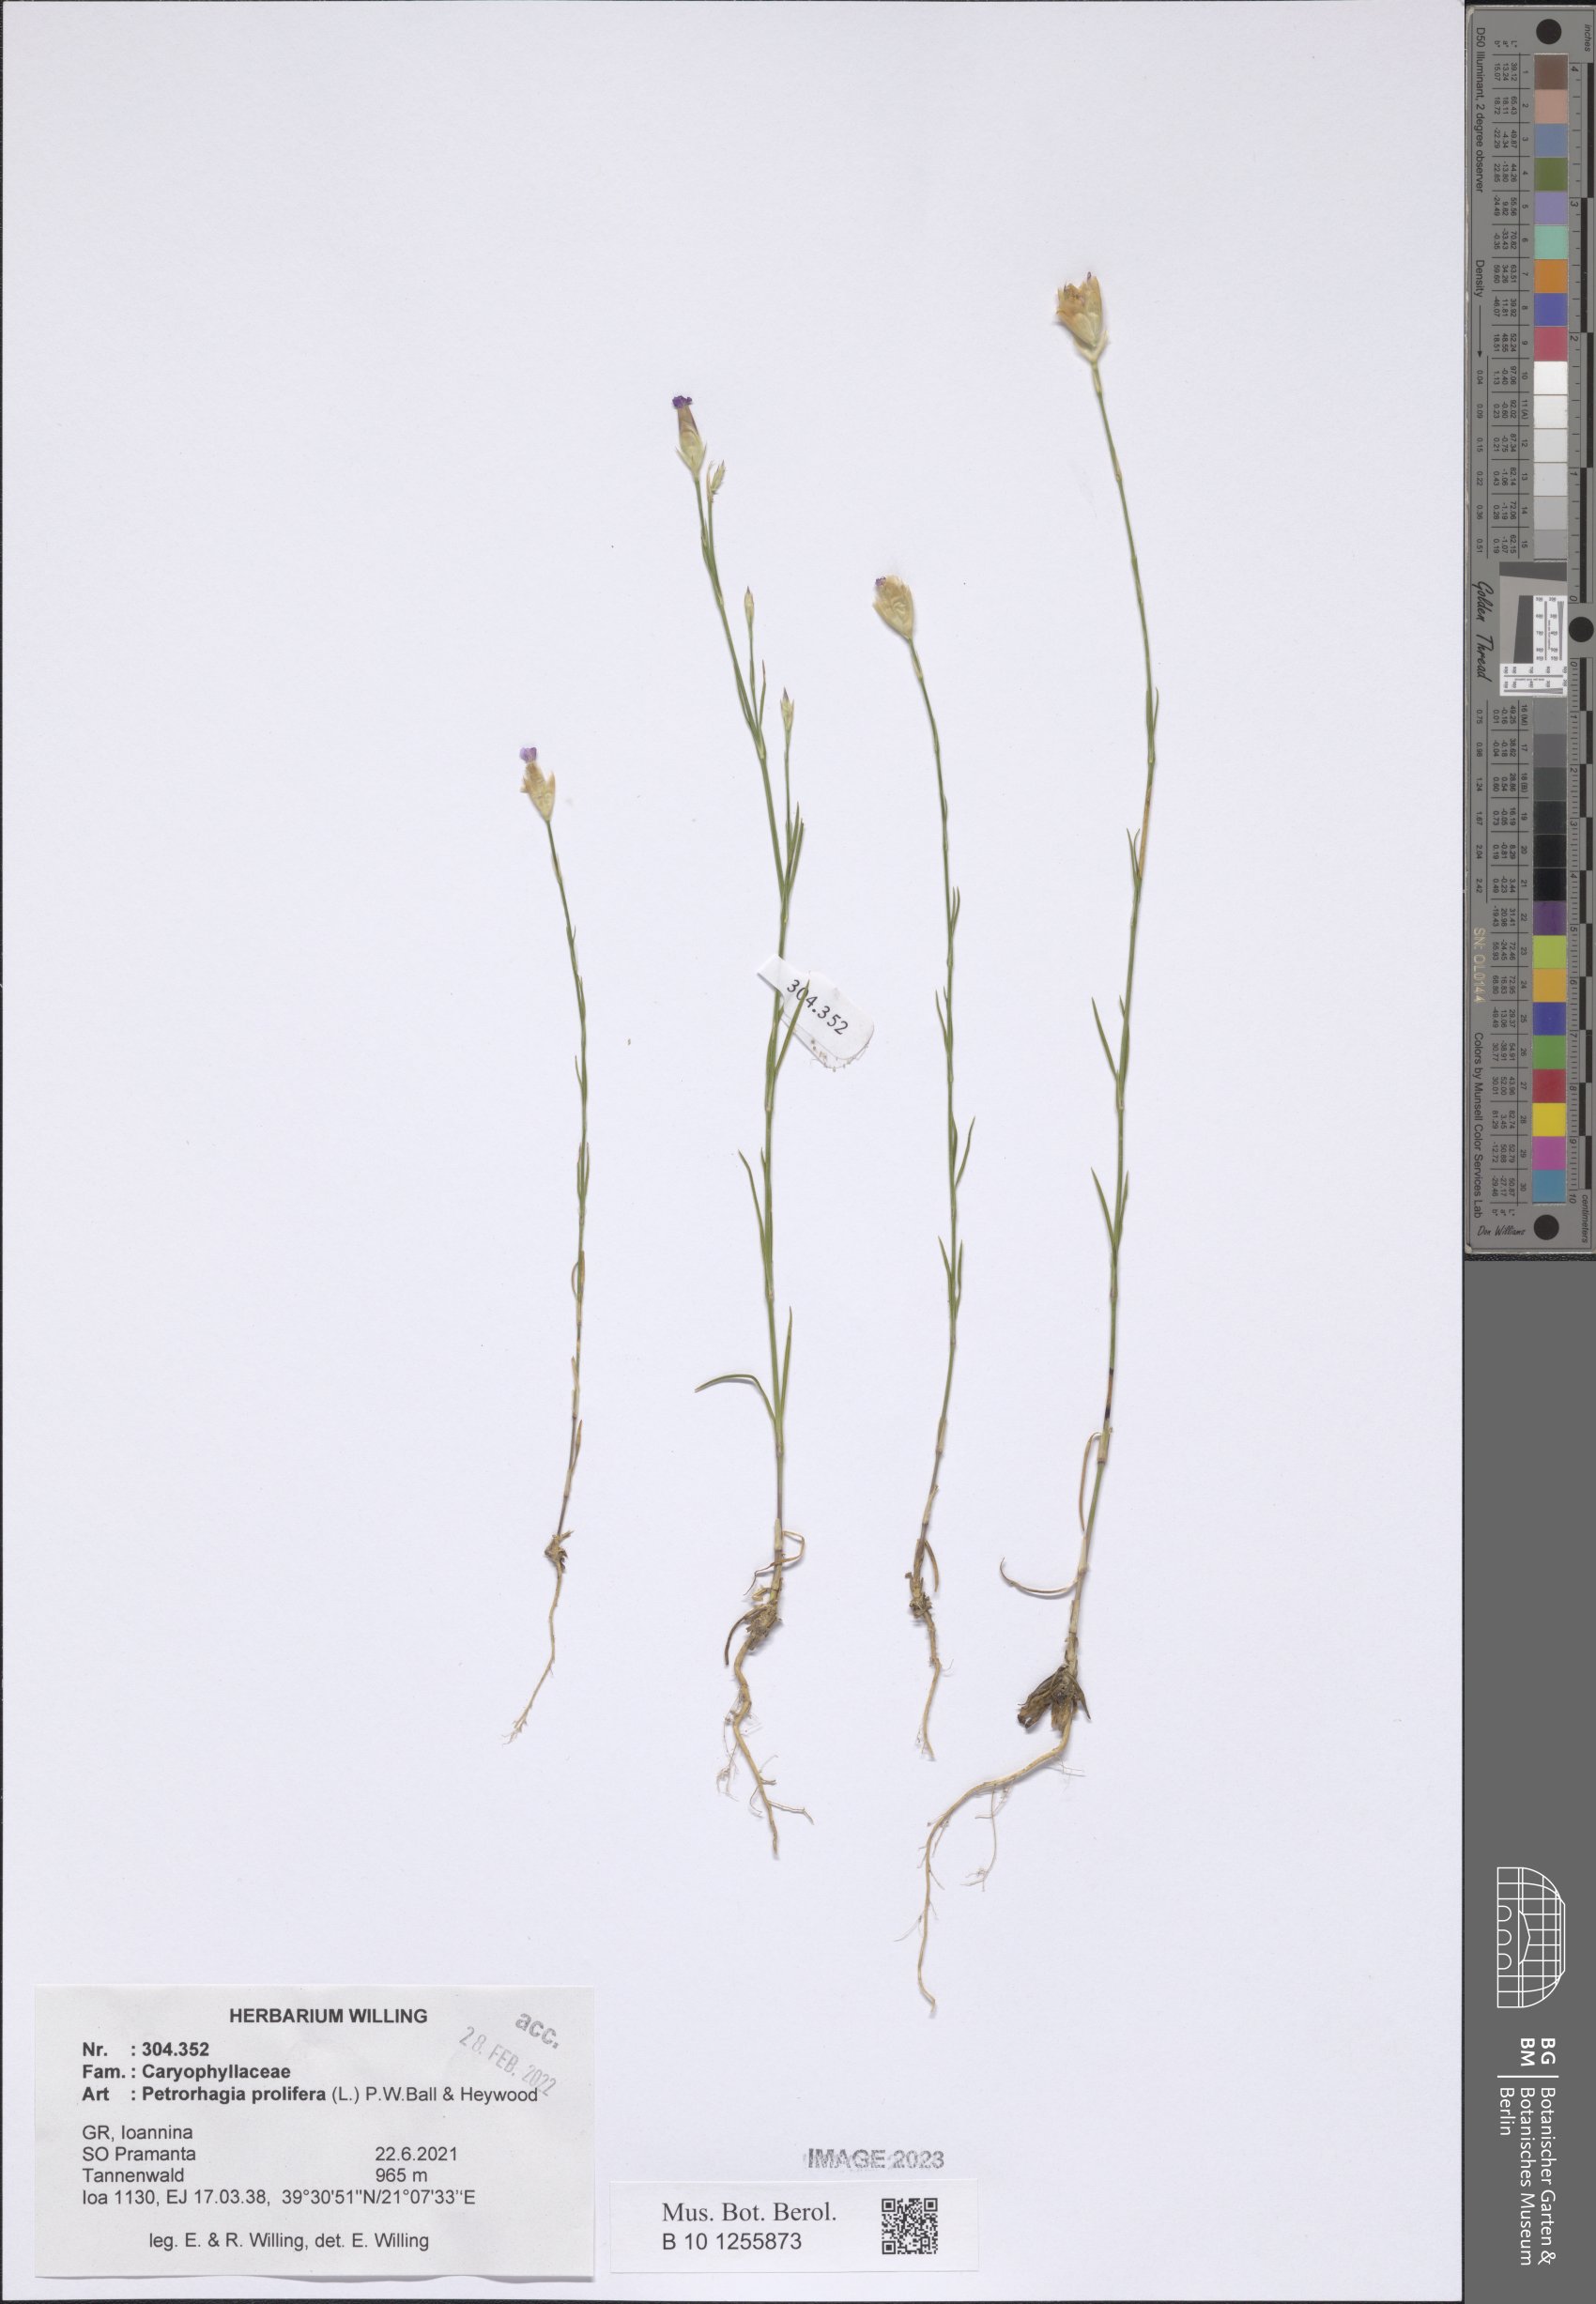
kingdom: Plantae
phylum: Tracheophyta
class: Magnoliopsida
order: Caryophyllales
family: Caryophyllaceae
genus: Petrorhagia
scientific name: Petrorhagia prolifera
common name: Proliferous pink
